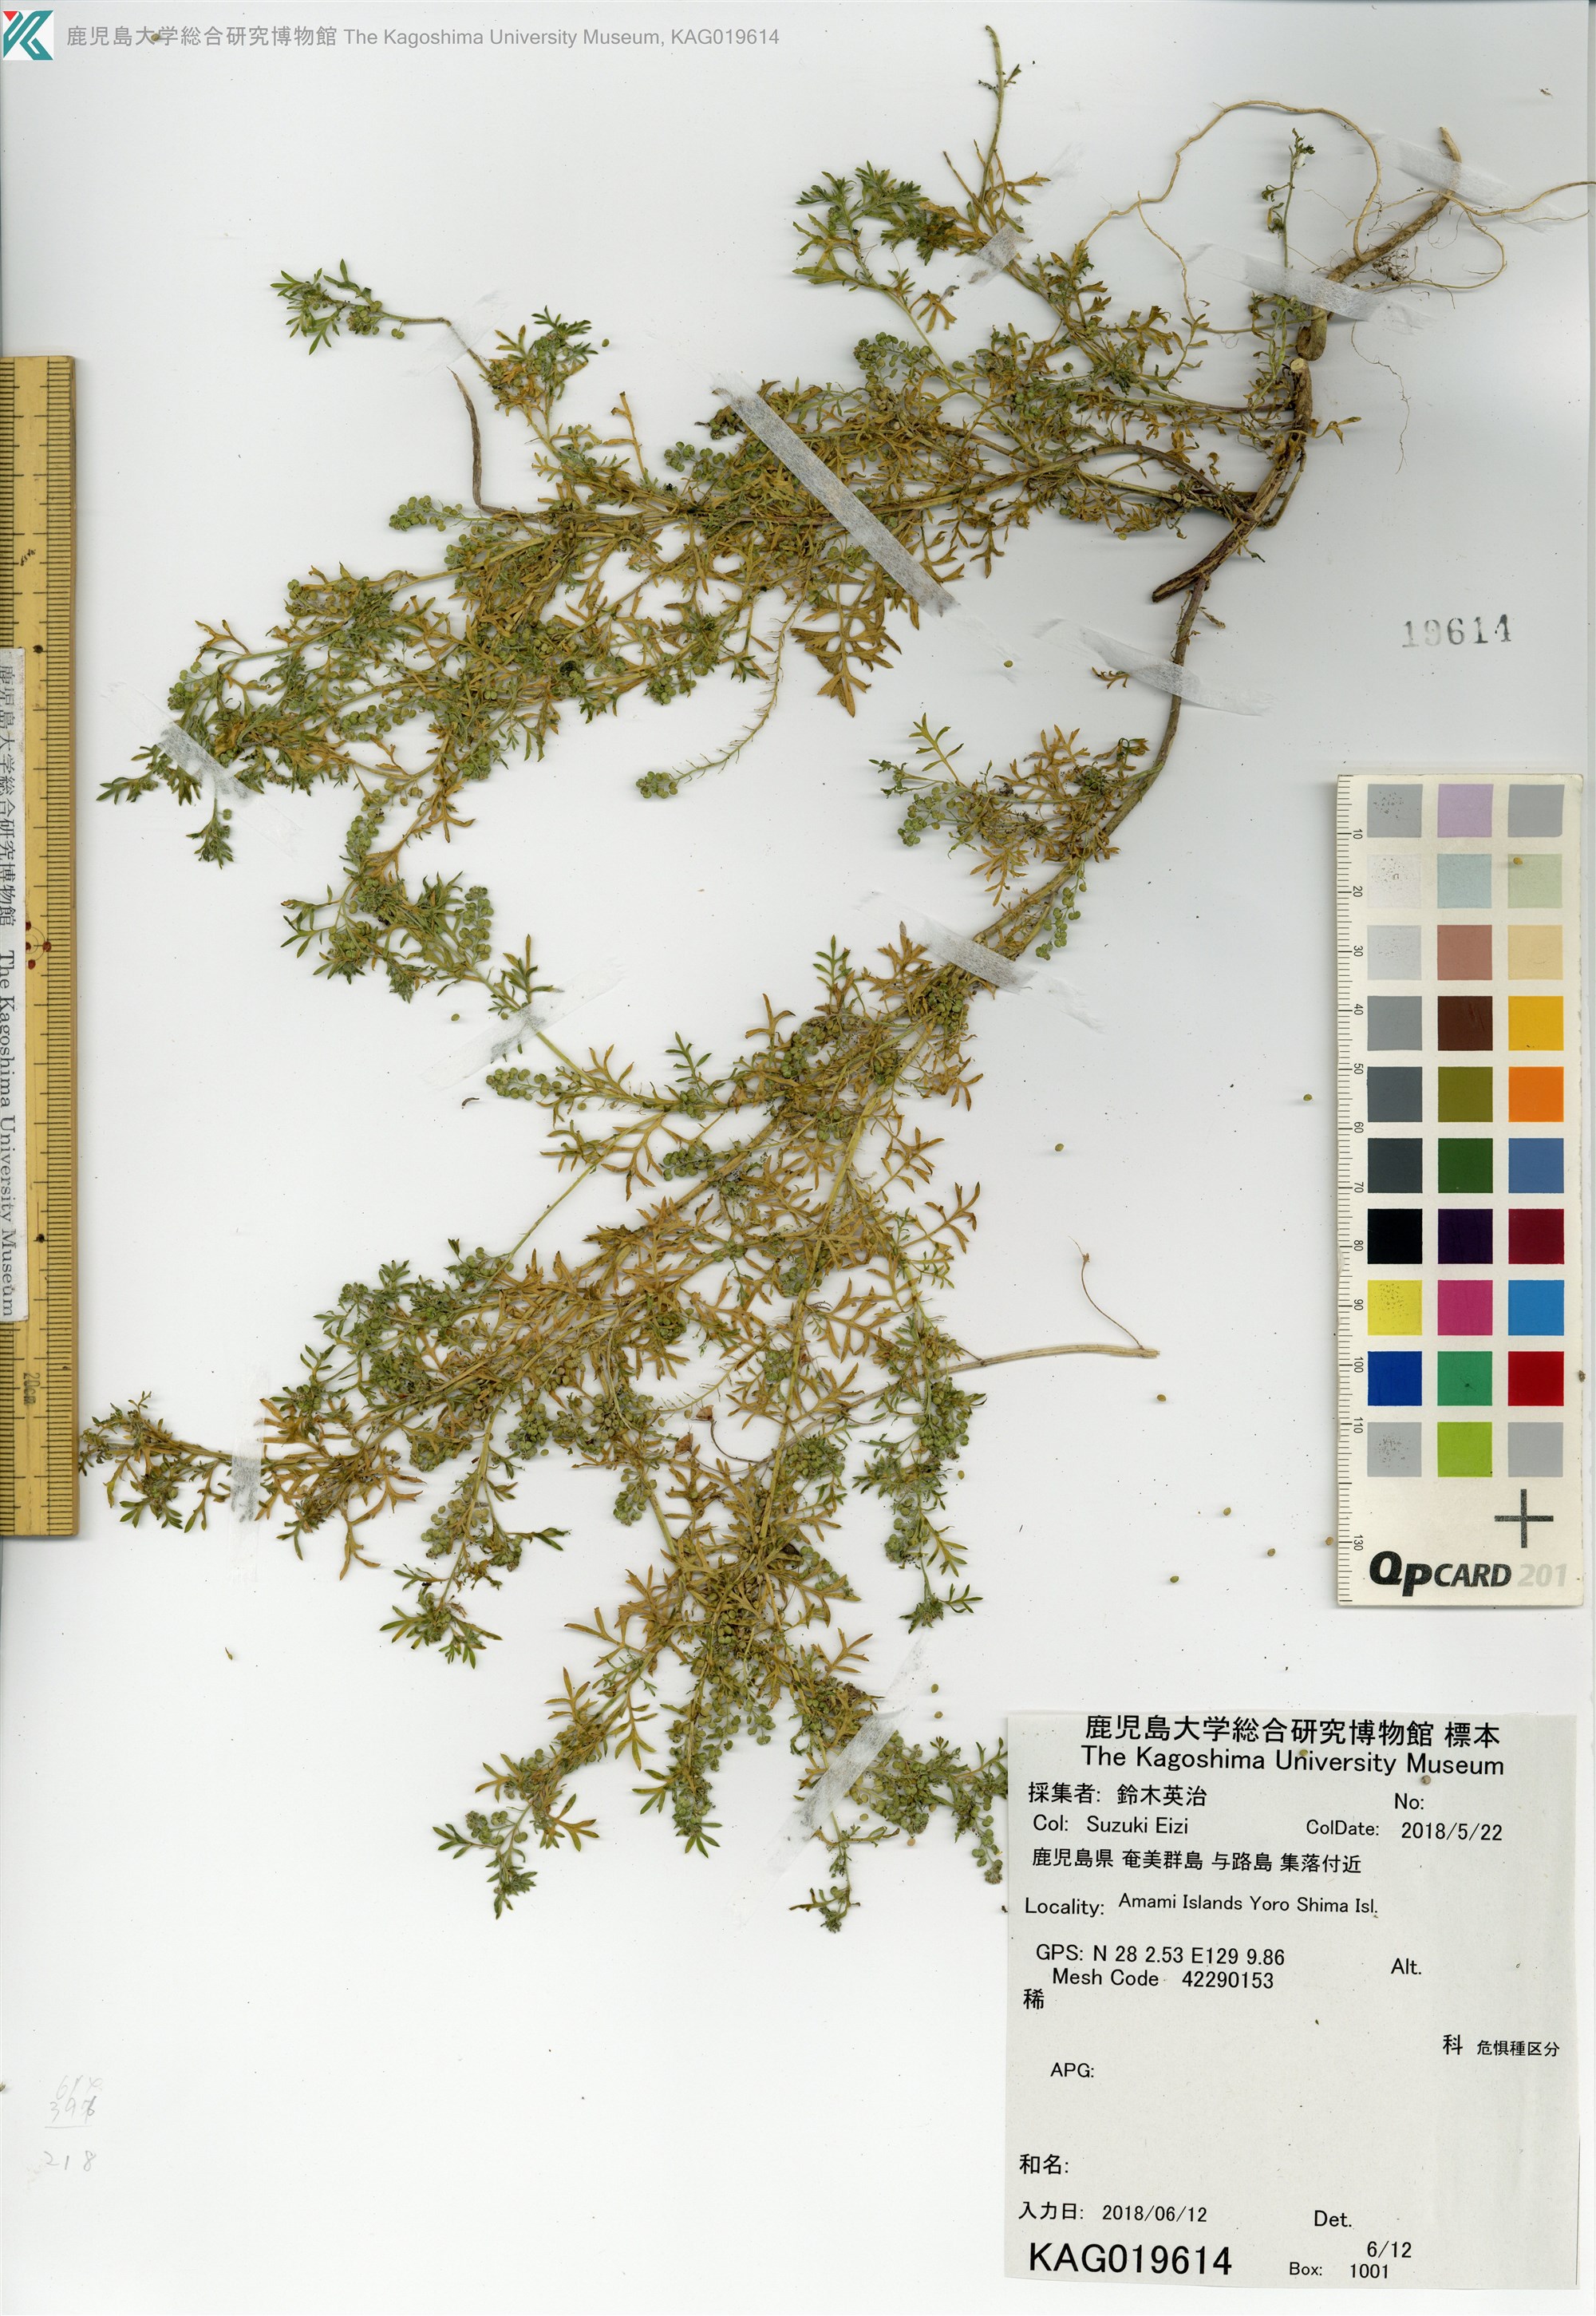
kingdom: Plantae
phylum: Tracheophyta
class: Magnoliopsida
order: Brassicales
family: Brassicaceae
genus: Lepidium
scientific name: Lepidium didymum
